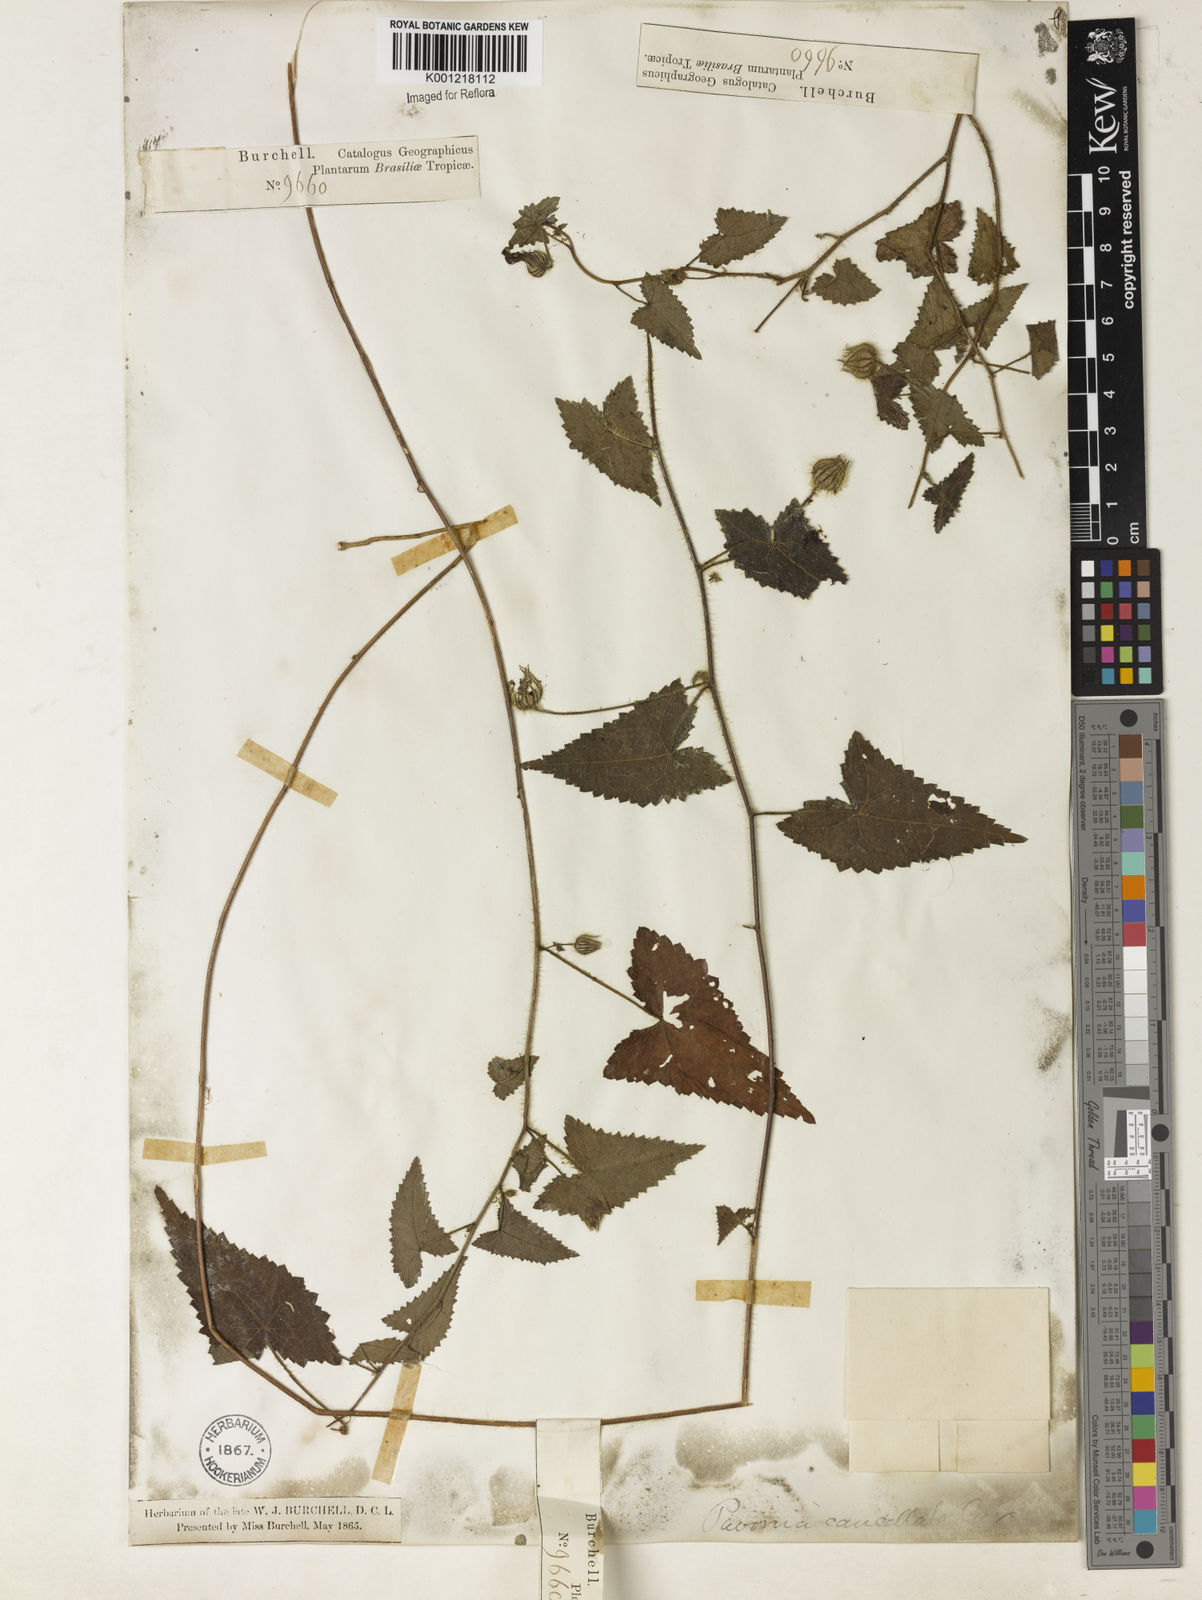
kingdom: Plantae
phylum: Tracheophyta
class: Magnoliopsida
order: Malvales
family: Malvaceae
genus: Pavonia
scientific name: Pavonia cancellata
